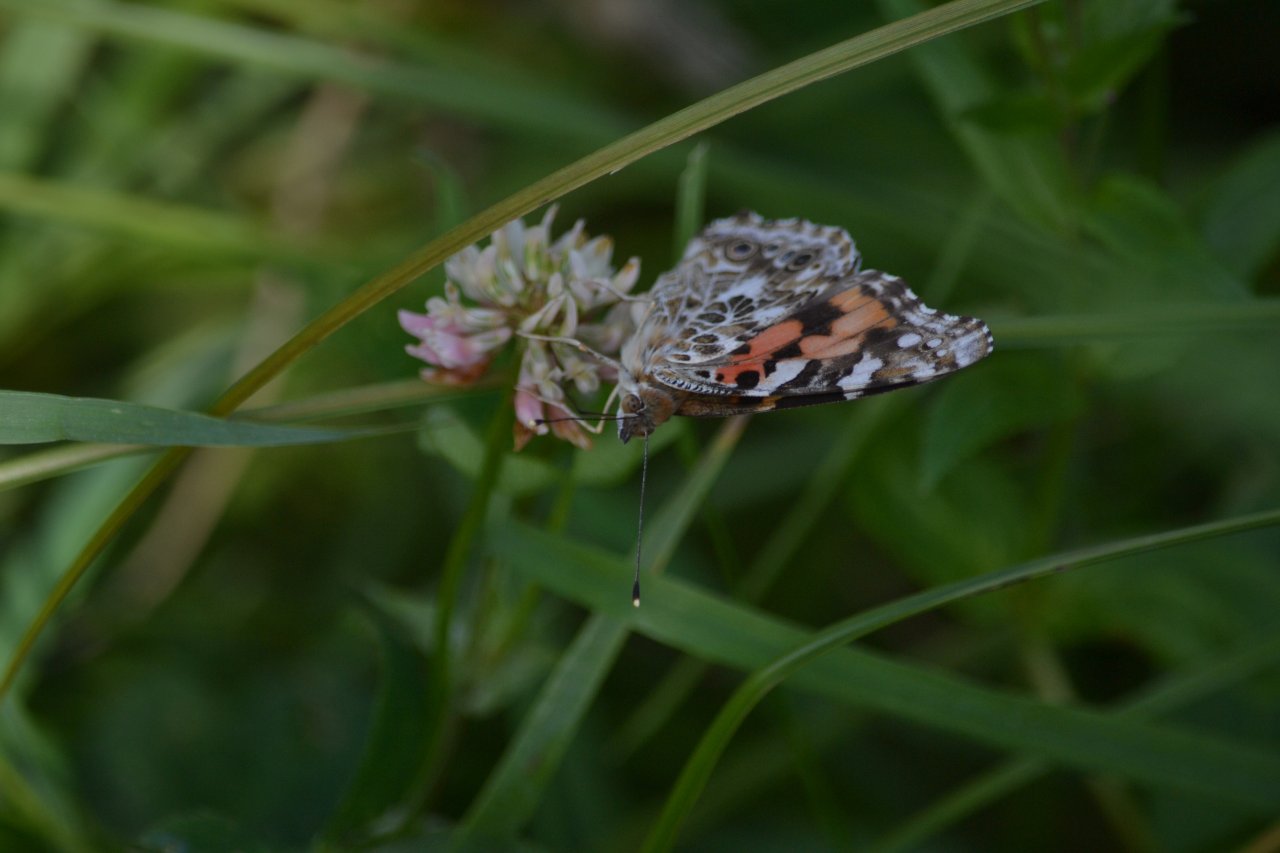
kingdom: Animalia
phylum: Arthropoda
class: Insecta
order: Lepidoptera
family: Nymphalidae
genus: Vanessa
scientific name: Vanessa cardui
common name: Painted Lady
